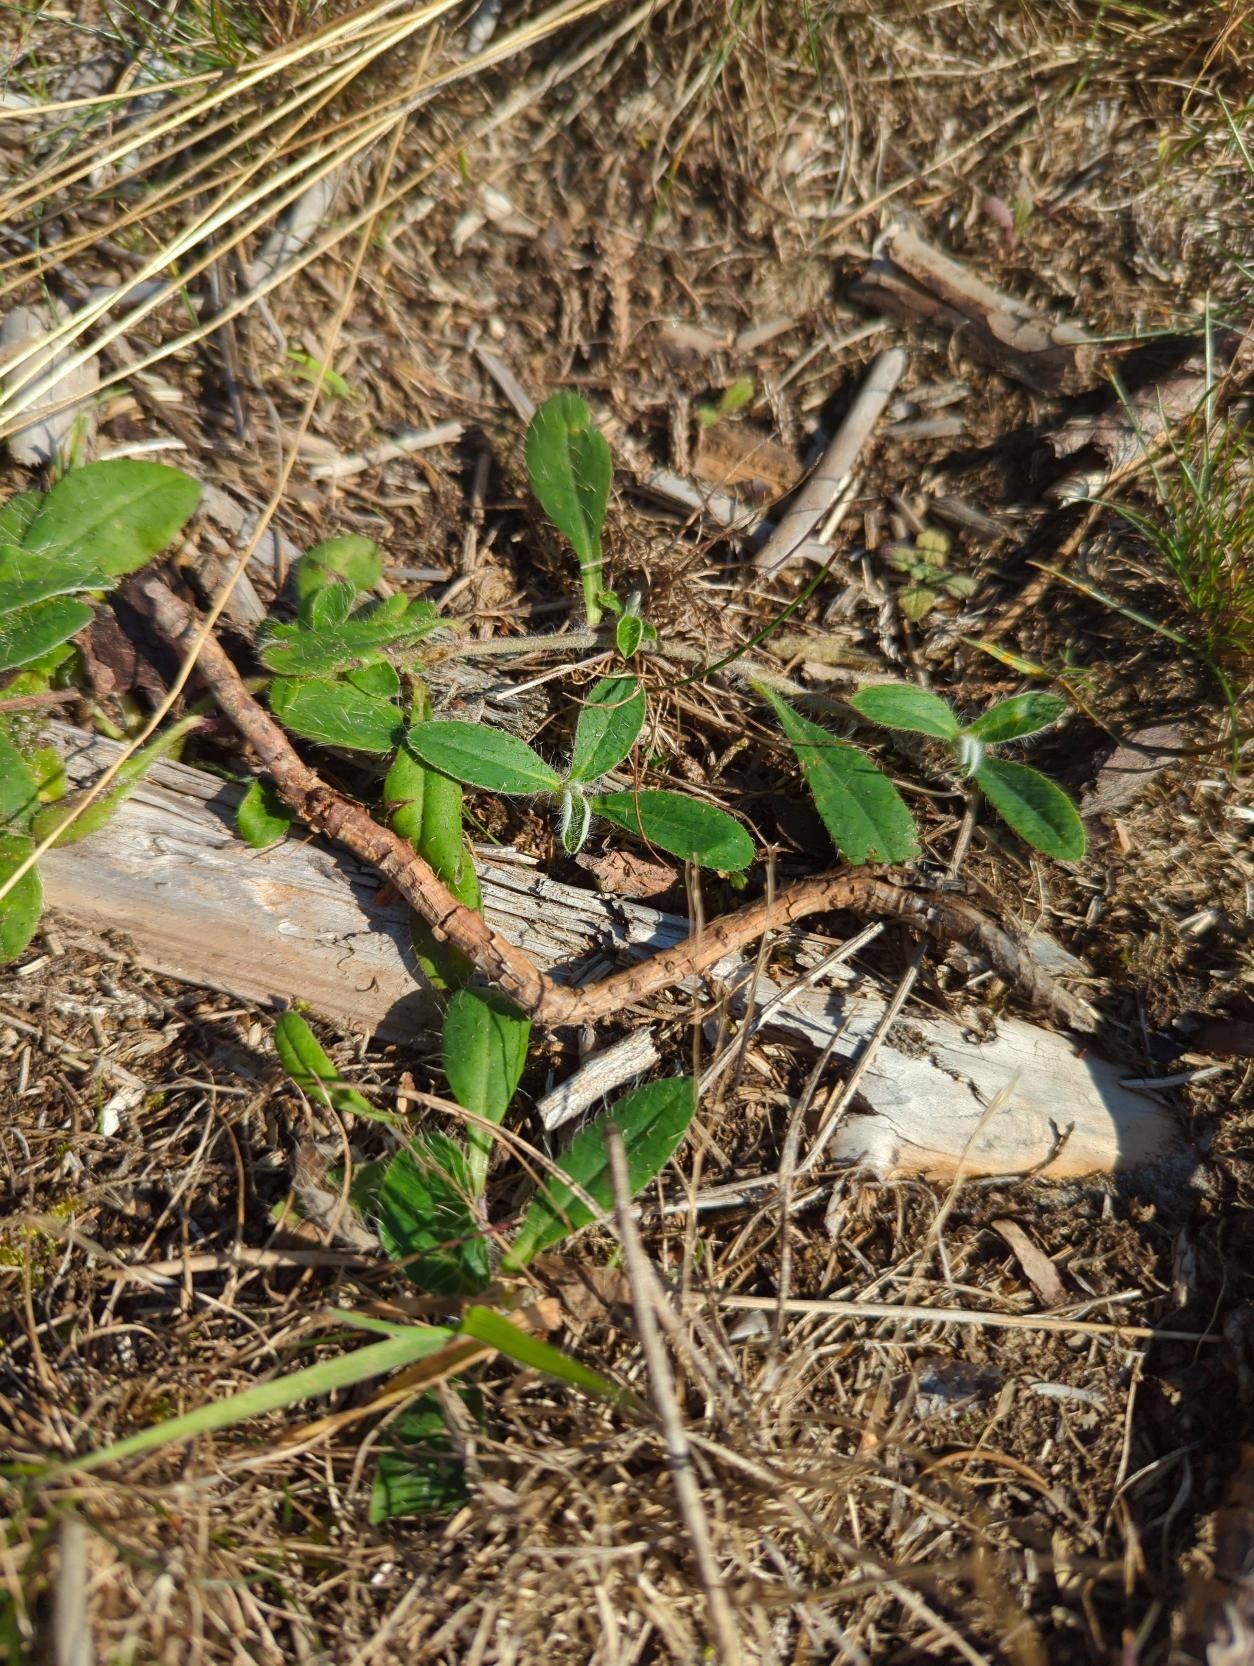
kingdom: Plantae
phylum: Tracheophyta
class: Magnoliopsida
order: Asterales
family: Asteraceae
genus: Pilosella
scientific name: Pilosella officinarum
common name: Håret høgeurt
